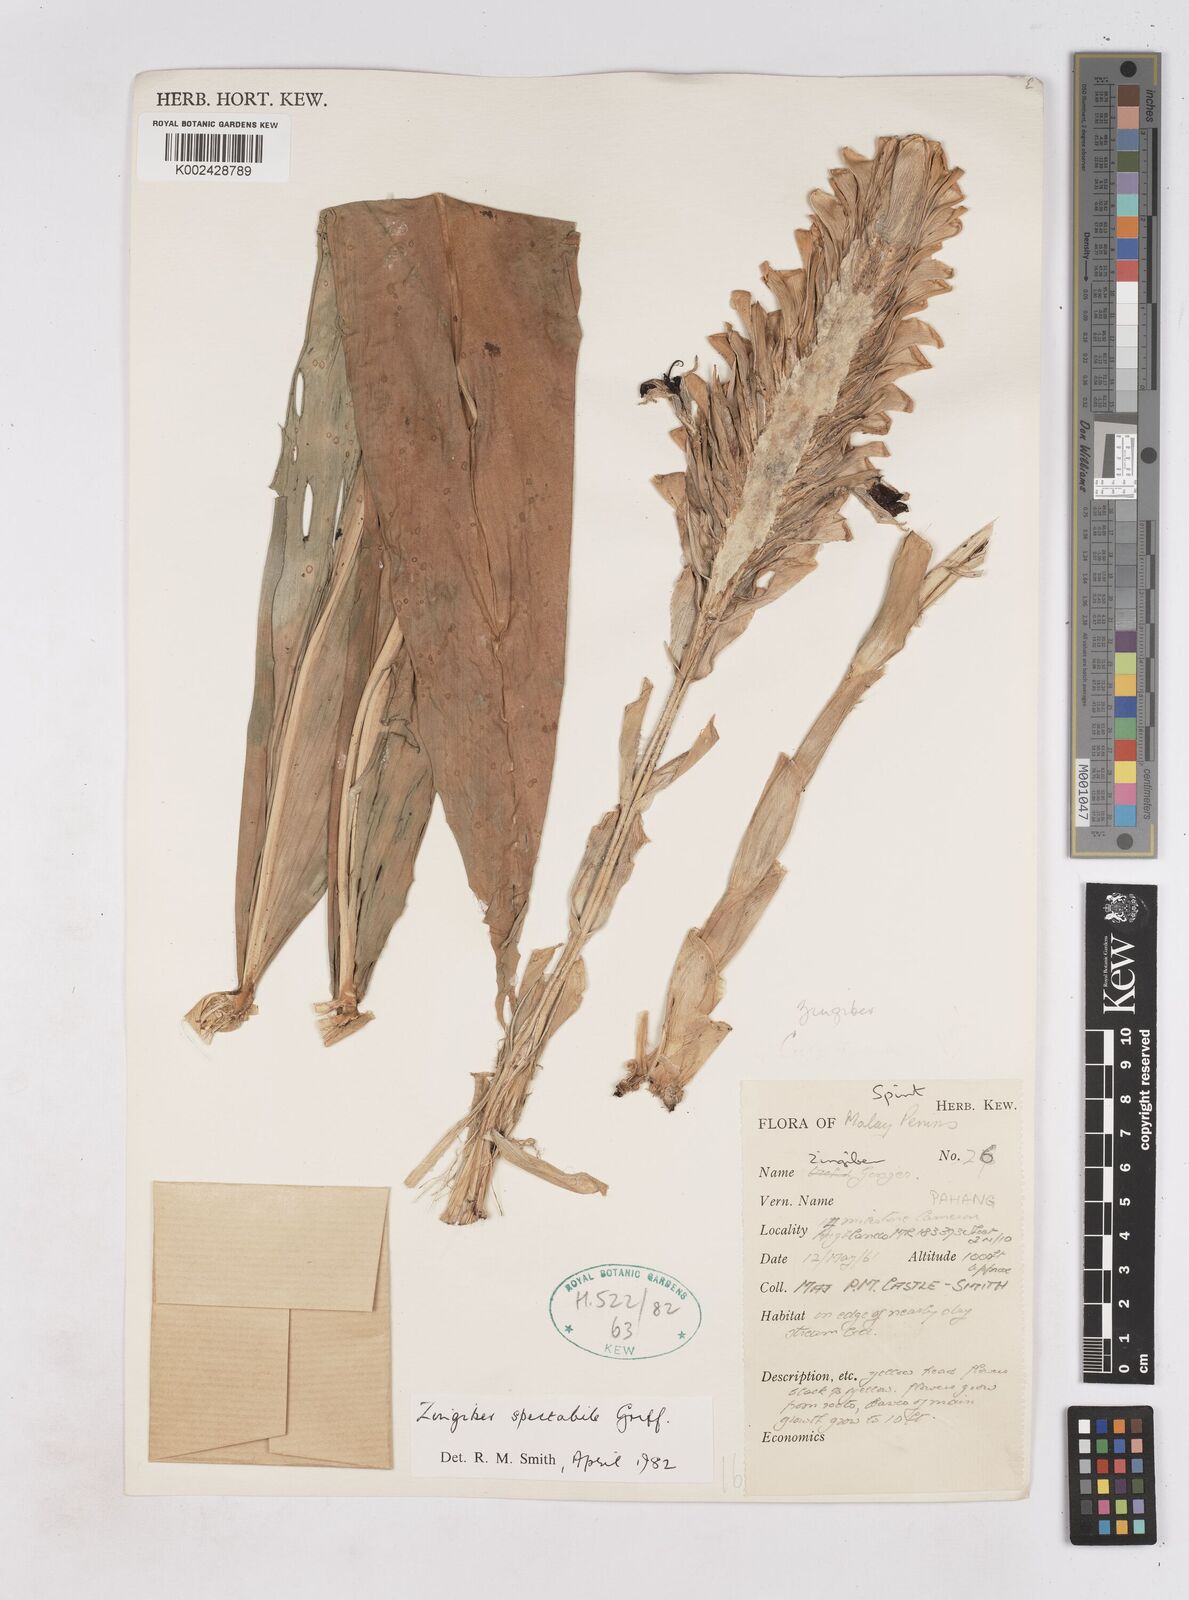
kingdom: Plantae
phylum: Tracheophyta
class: Liliopsida
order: Zingiberales
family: Zingiberaceae
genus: Zingiber
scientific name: Zingiber spectabile
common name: Beehive ginger
